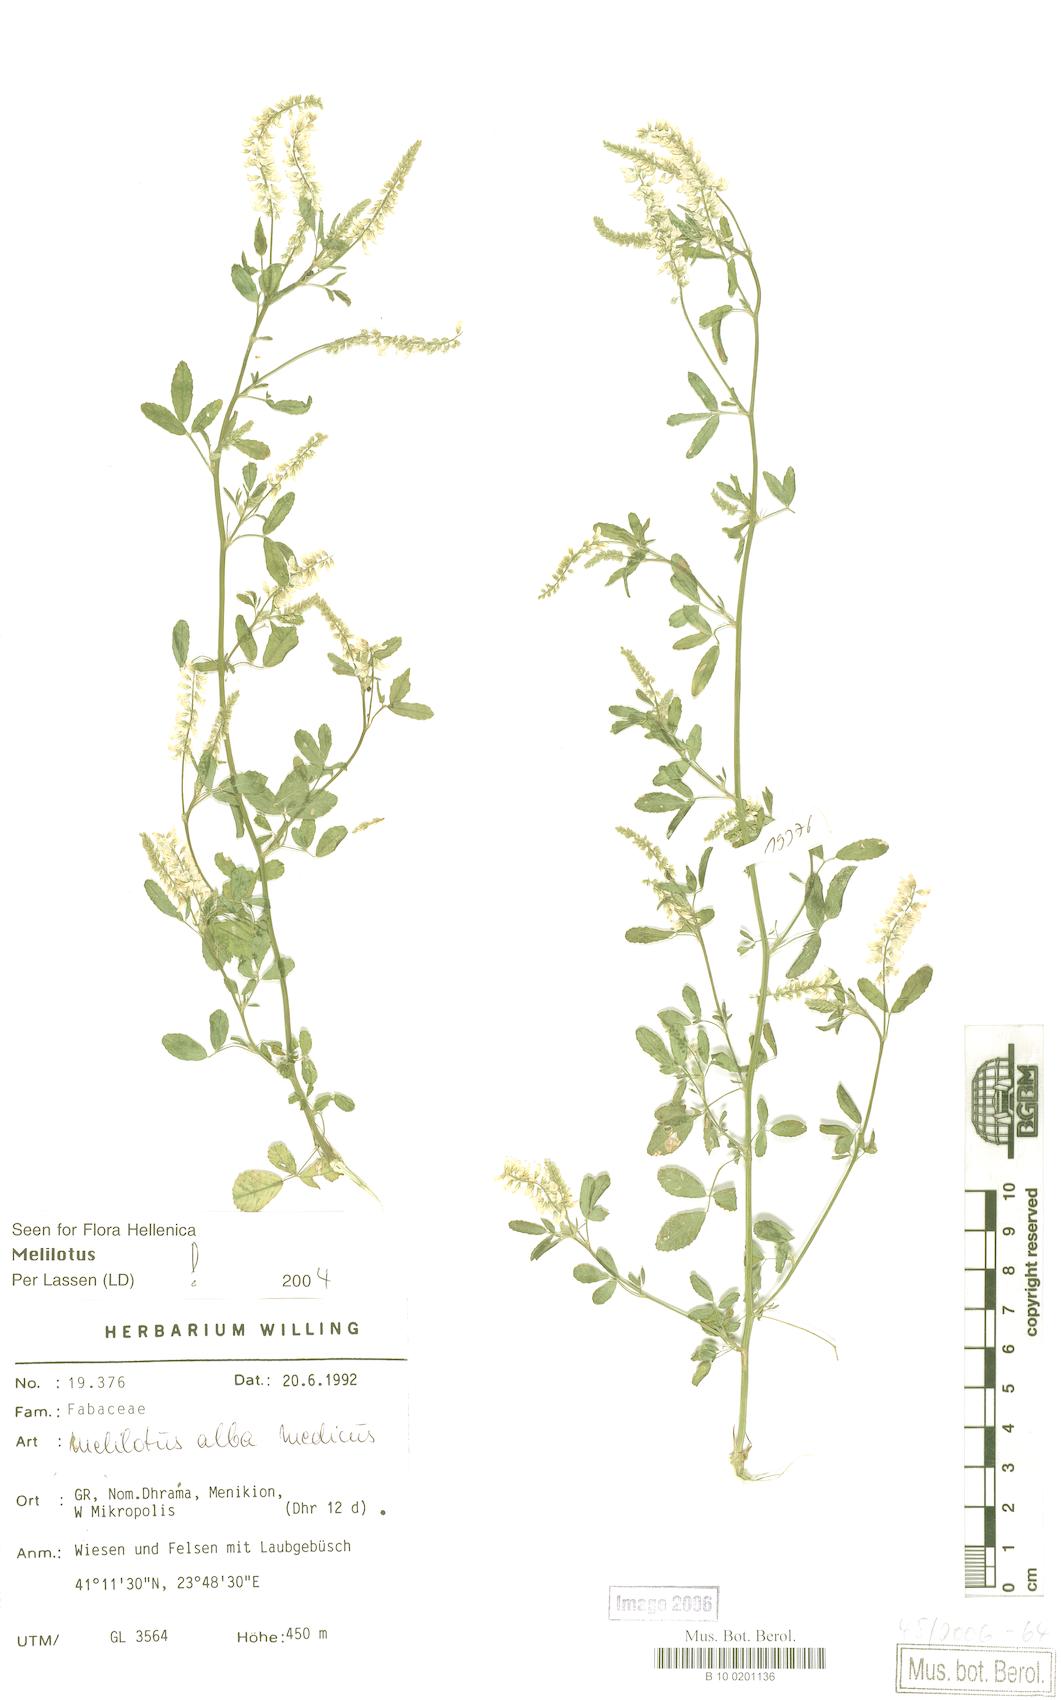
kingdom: Plantae
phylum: Tracheophyta
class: Magnoliopsida
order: Fabales
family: Fabaceae
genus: Melilotus
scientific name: Melilotus albus
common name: White melilot
